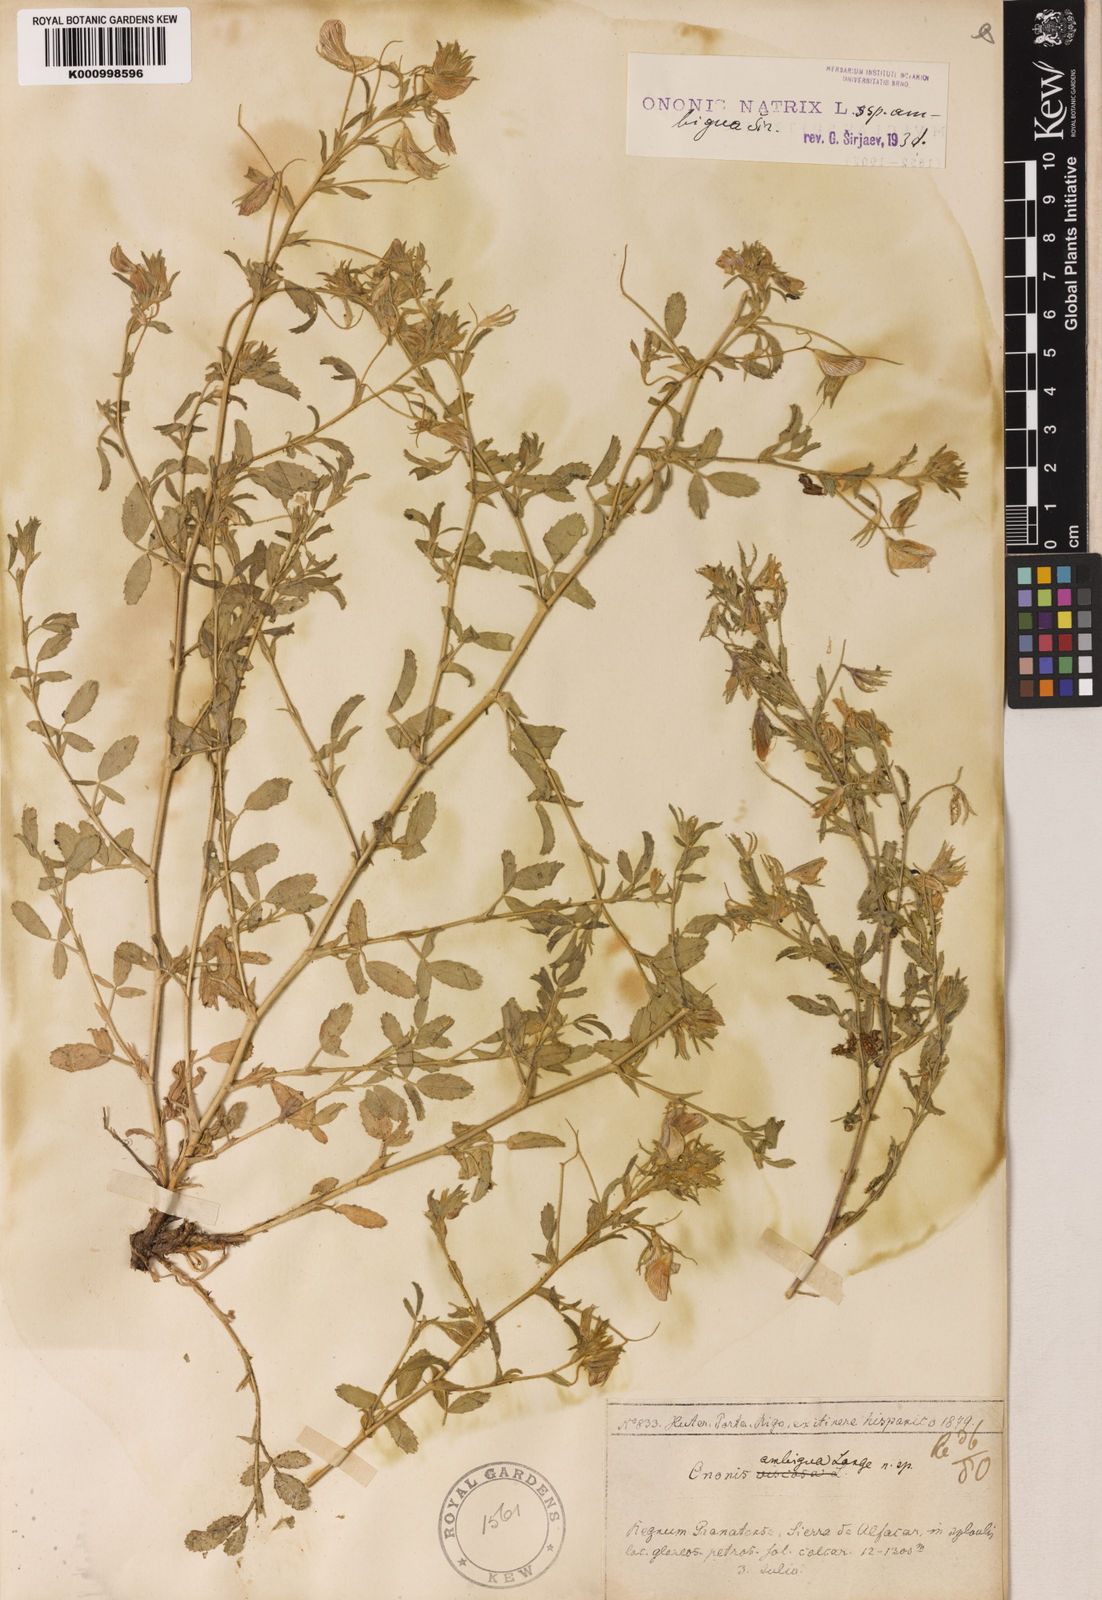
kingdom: Plantae
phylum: Tracheophyta
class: Magnoliopsida
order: Fabales
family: Fabaceae
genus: Ononis
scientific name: Ononis natrix
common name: Yellow restharrow
